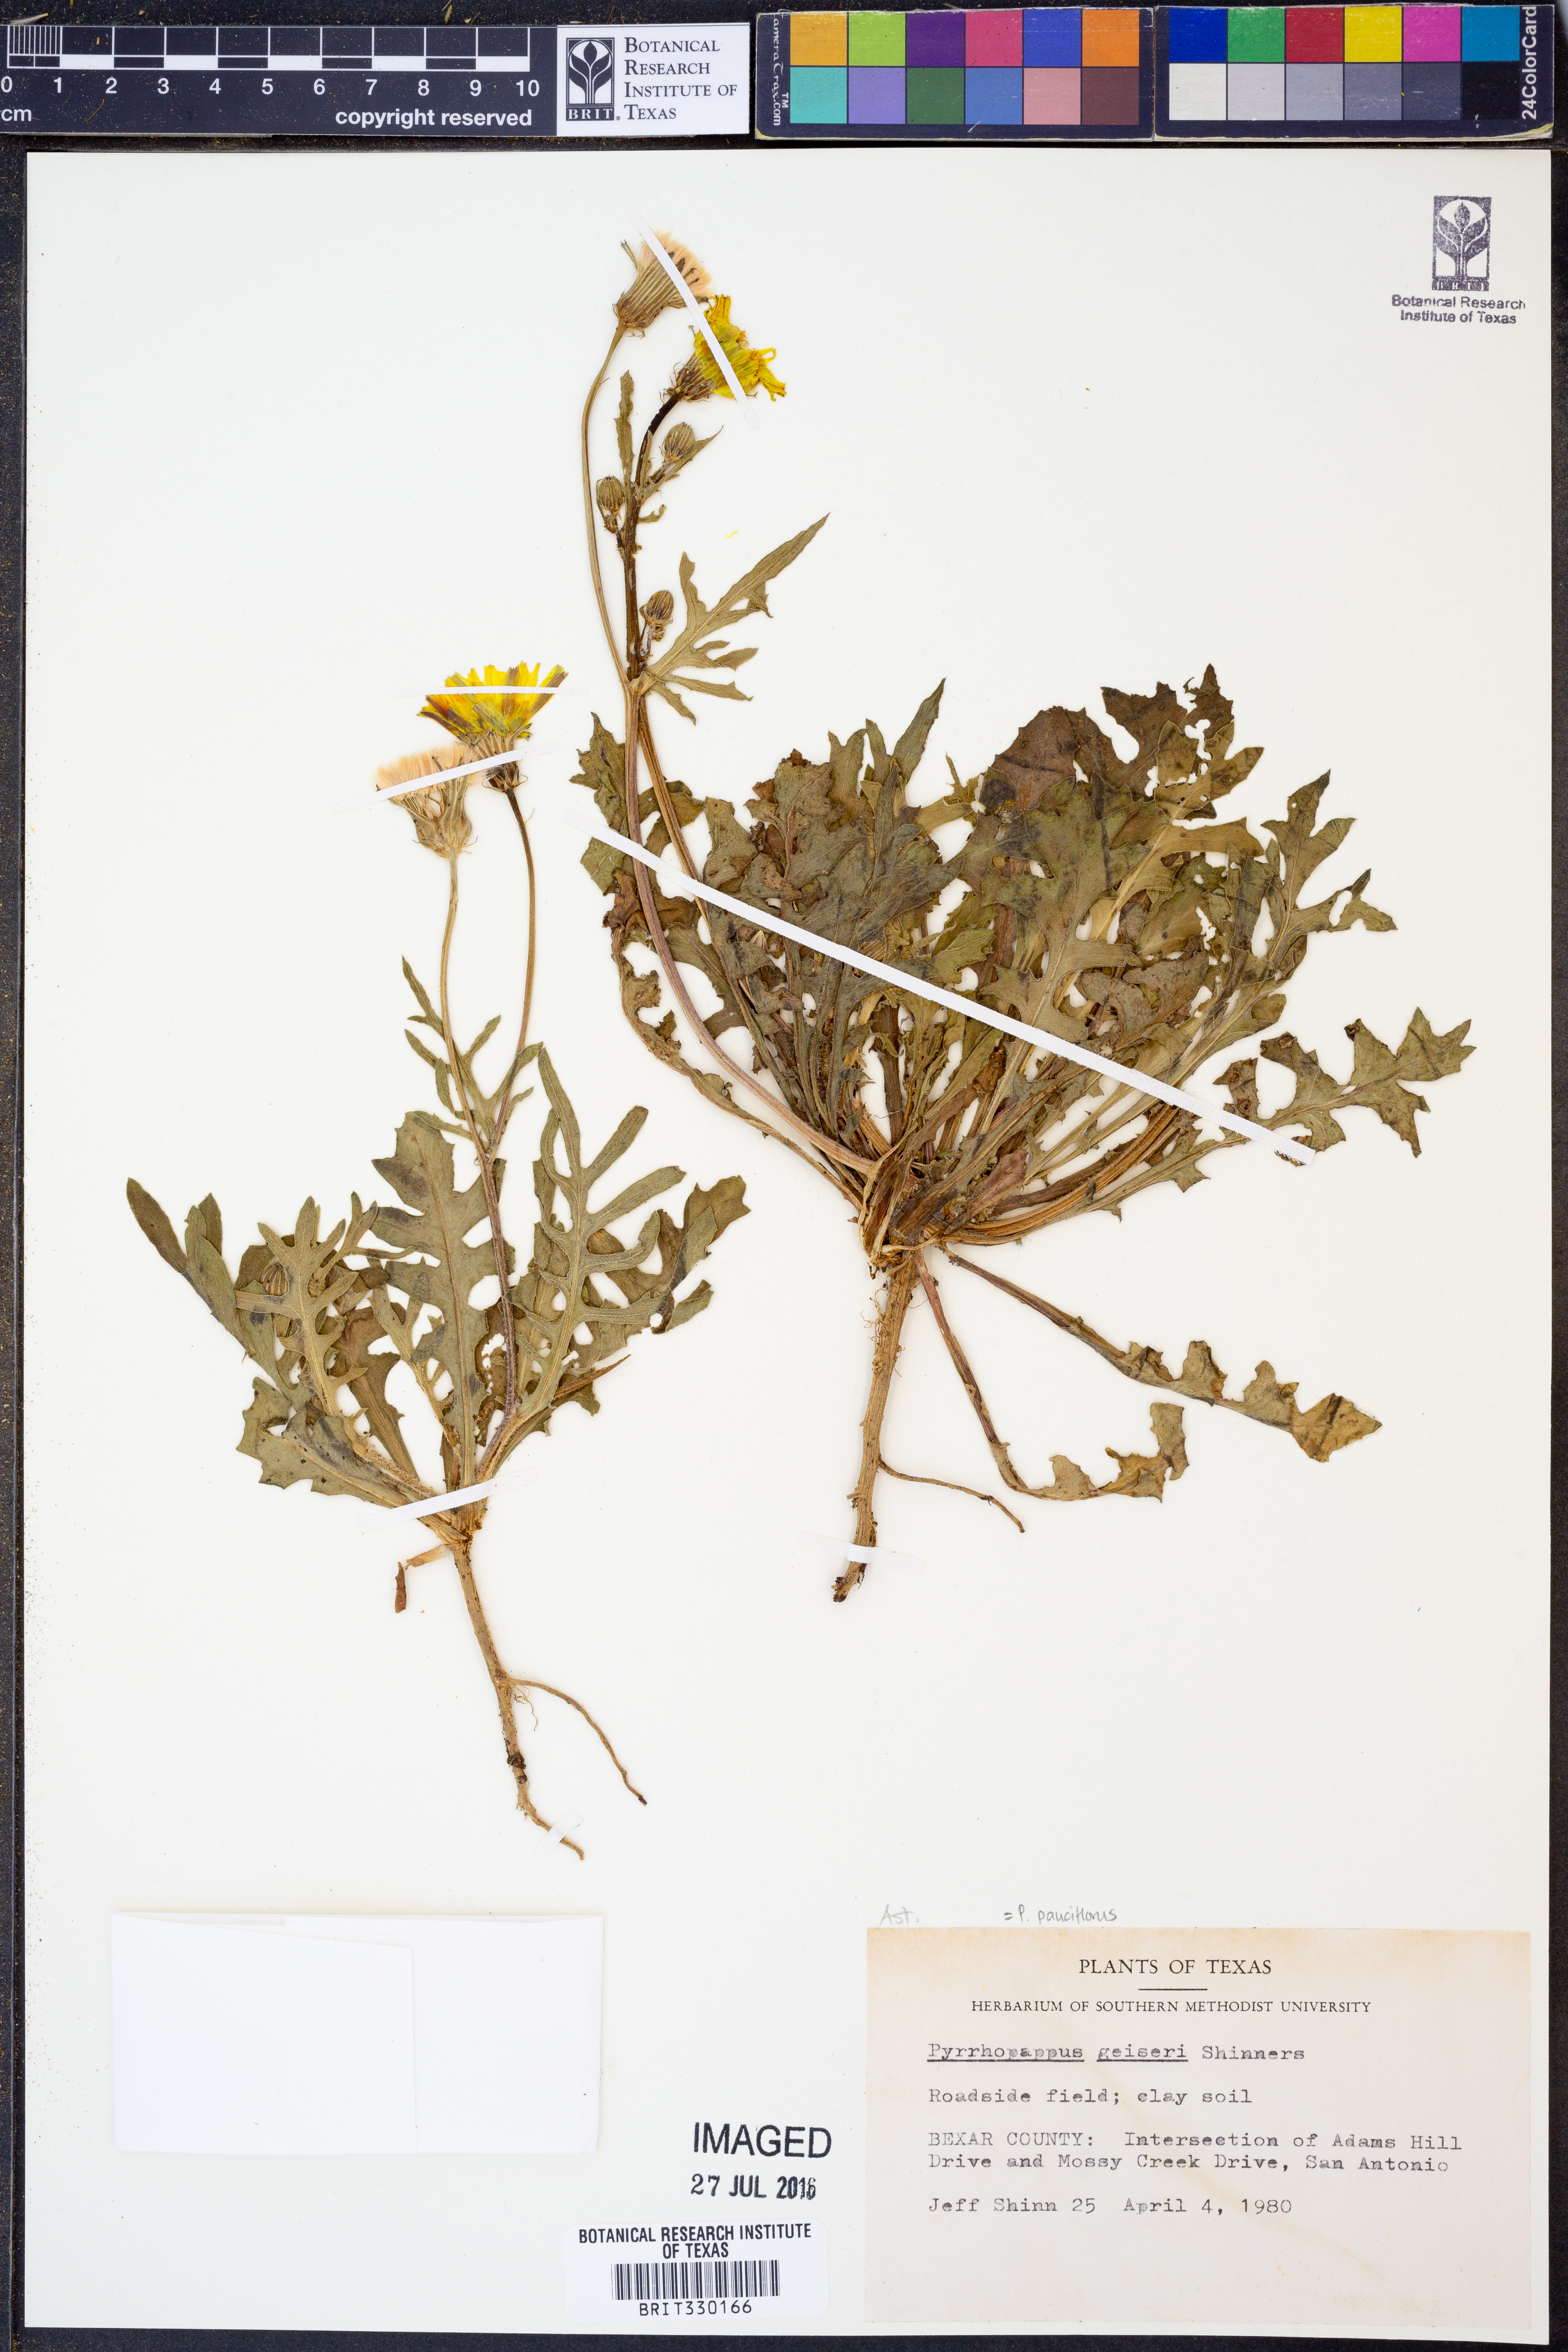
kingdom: Plantae
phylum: Tracheophyta
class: Magnoliopsida
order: Asterales
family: Asteraceae
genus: Pyrrhopappus
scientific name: Pyrrhopappus pauciflorus
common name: Texas false dandelion
